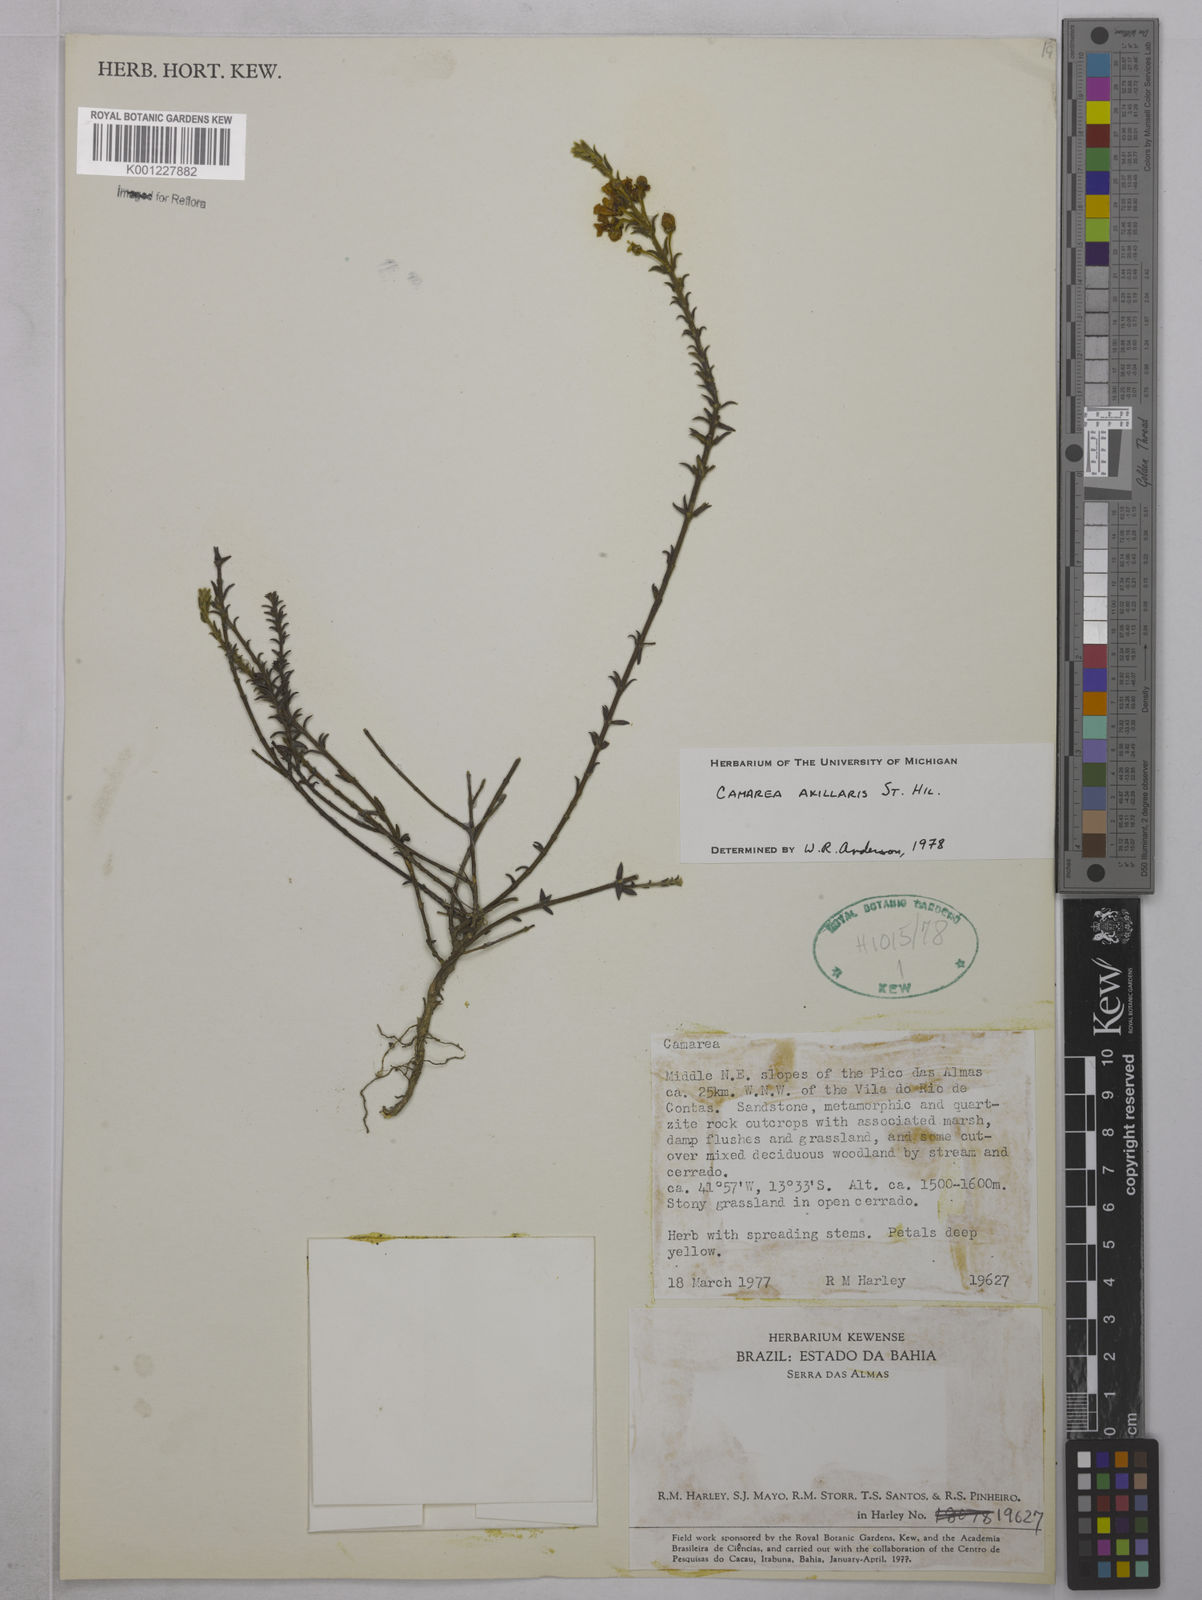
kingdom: Plantae
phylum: Tracheophyta
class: Magnoliopsida
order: Malpighiales
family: Malpighiaceae
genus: Camarea
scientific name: Camarea axillaris
